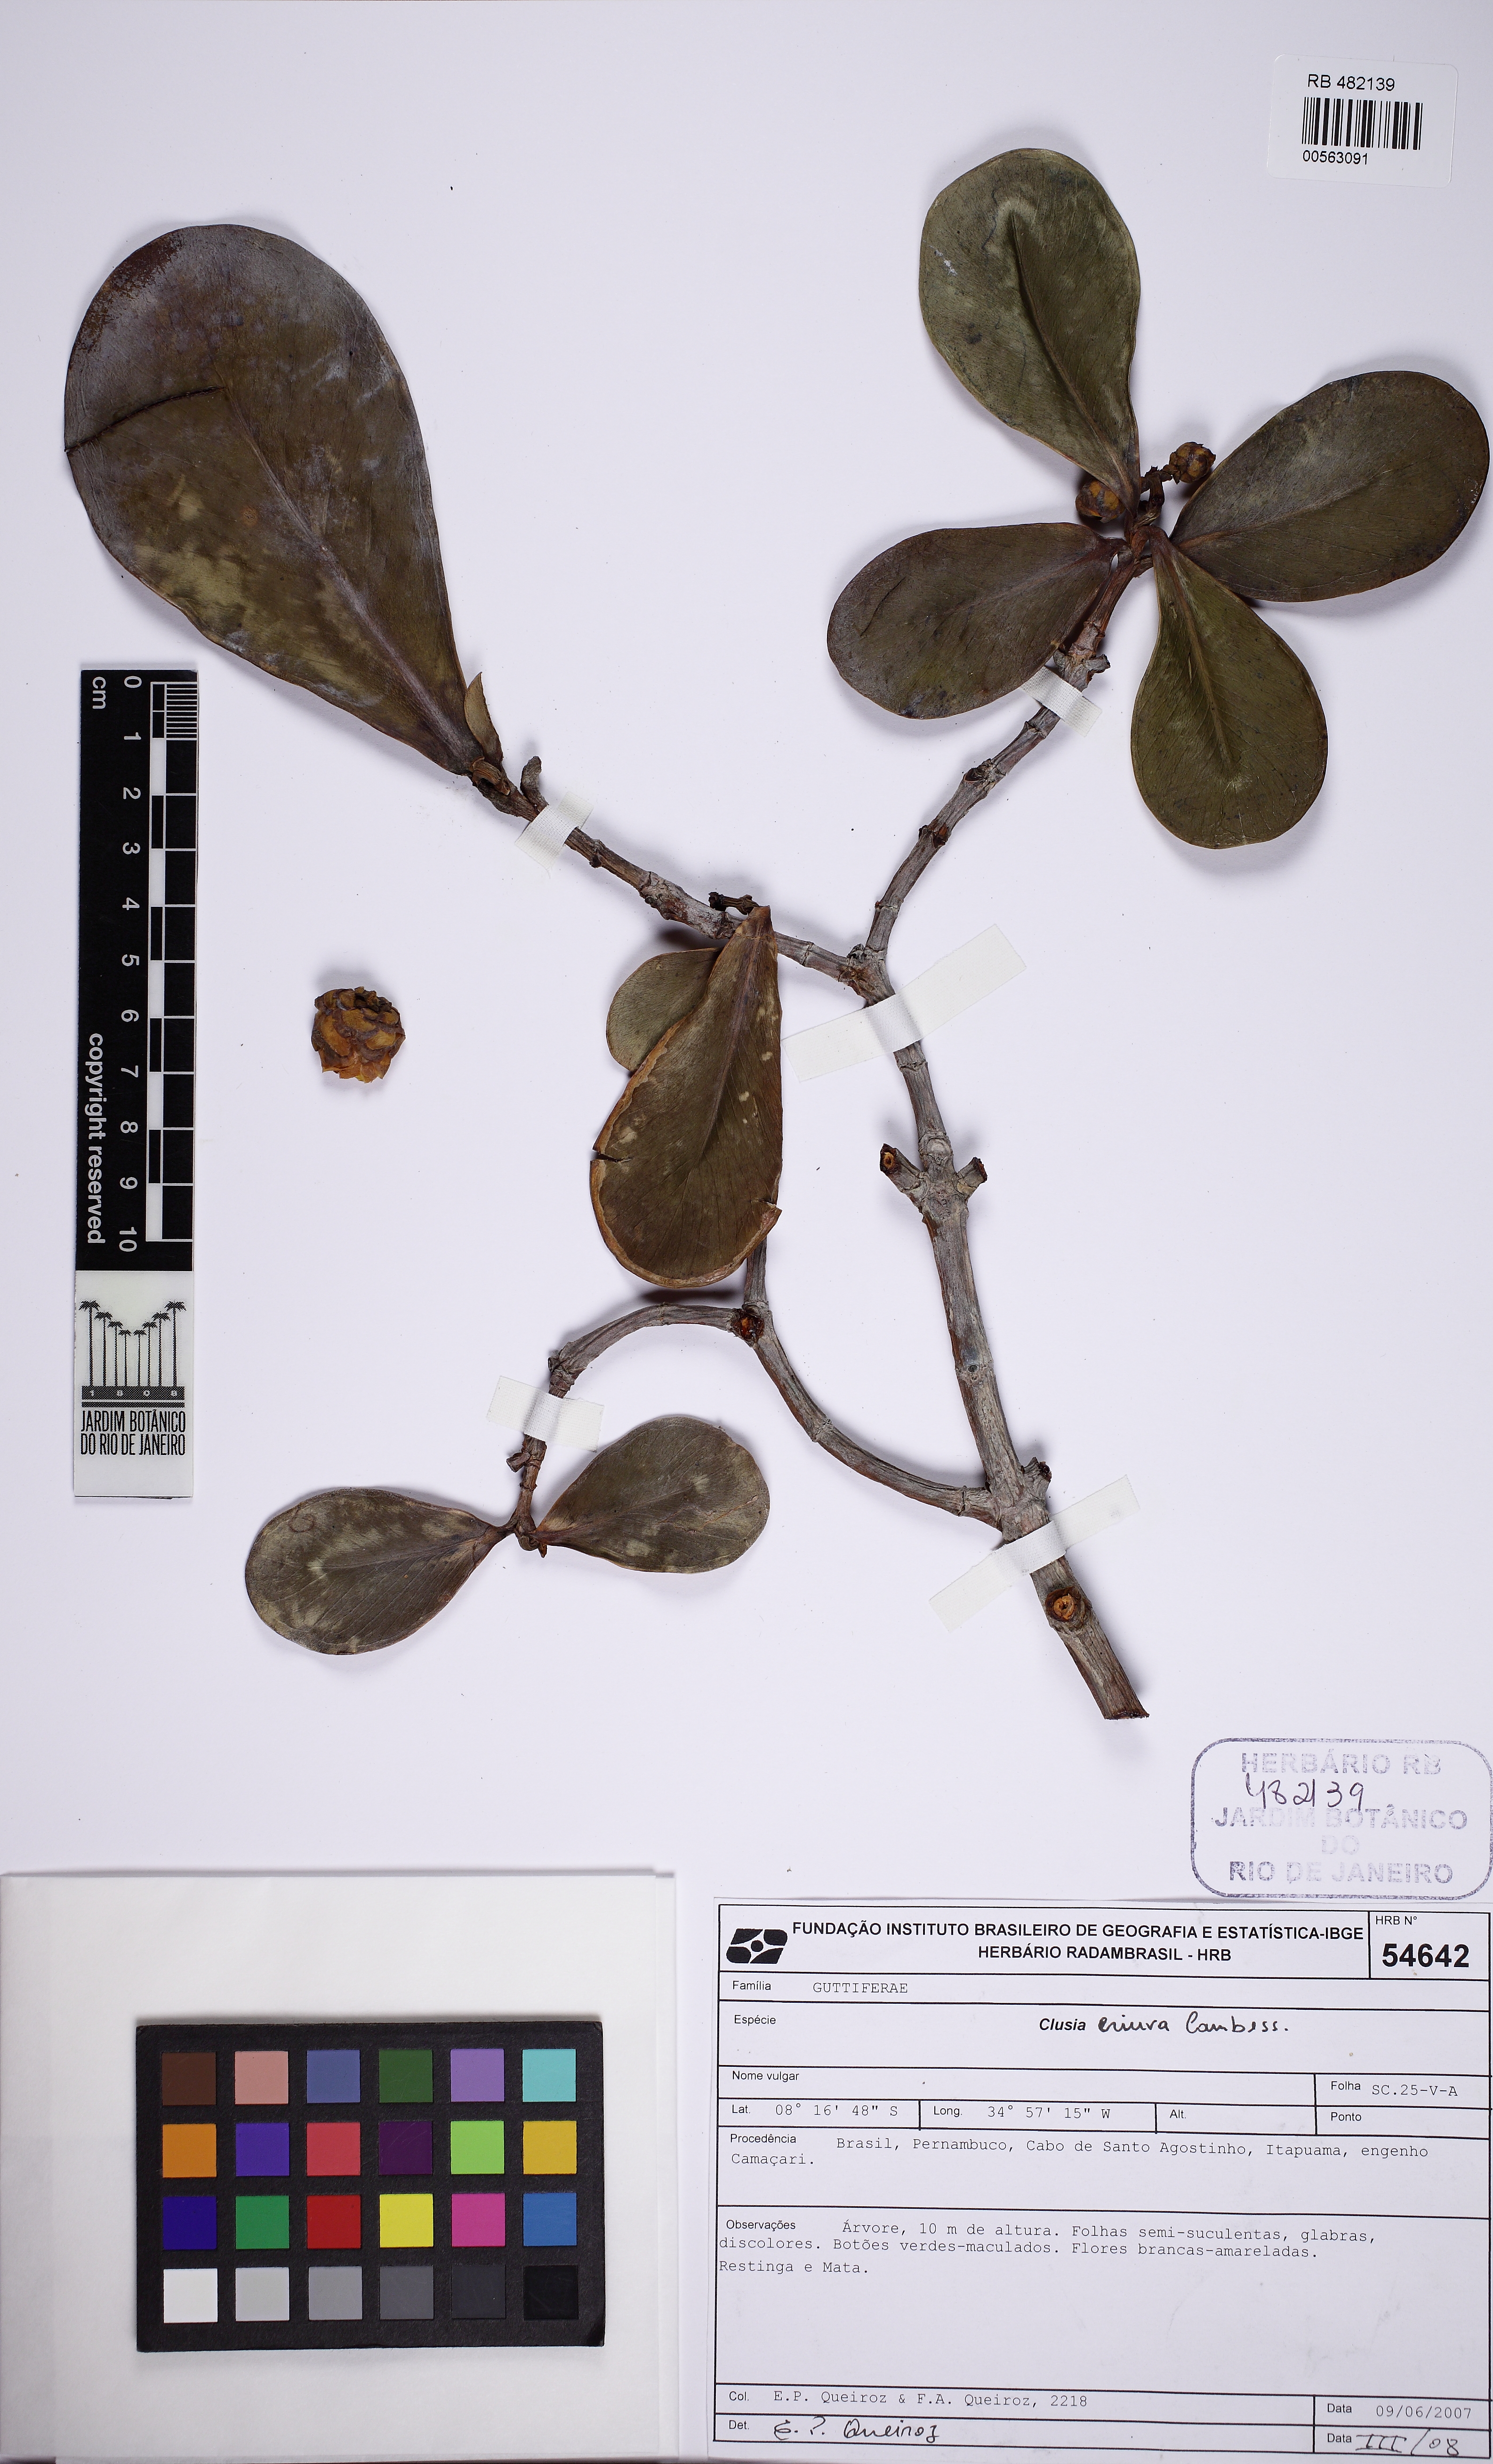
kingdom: Plantae
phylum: Tracheophyta
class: Magnoliopsida
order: Malpighiales
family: Clusiaceae
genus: Clusia
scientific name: Clusia fluminensis
